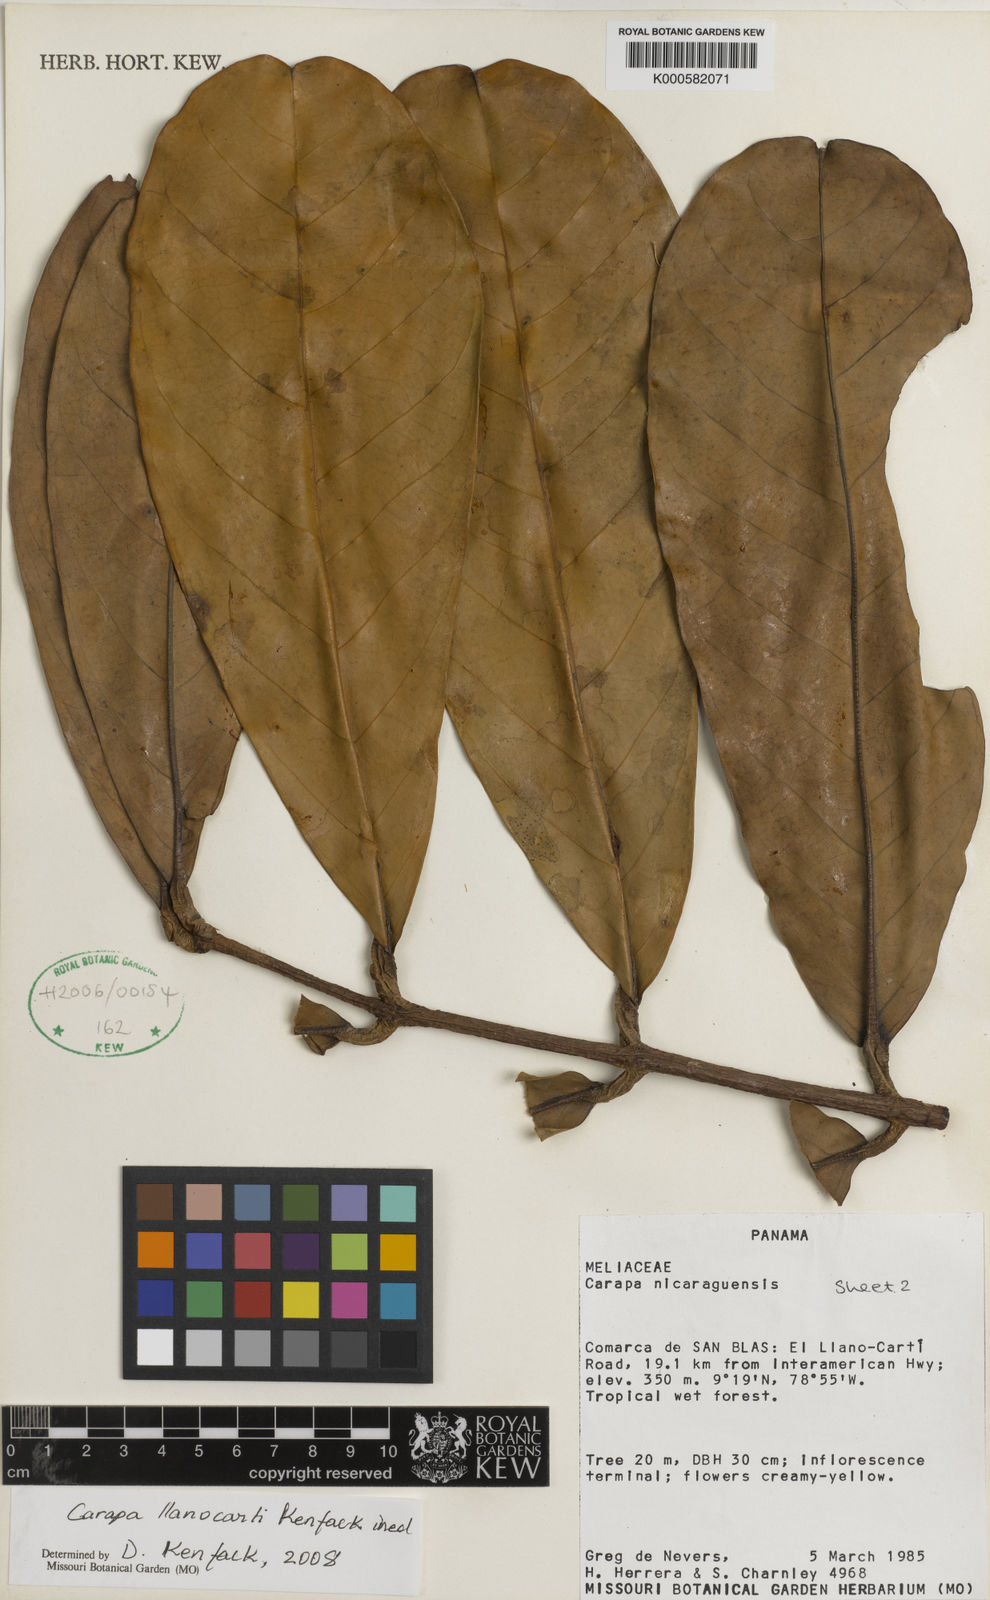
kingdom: Plantae
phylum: Tracheophyta
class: Magnoliopsida
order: Sapindales
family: Meliaceae
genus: Carapa
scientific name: Carapa guianensis
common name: Crabwood
